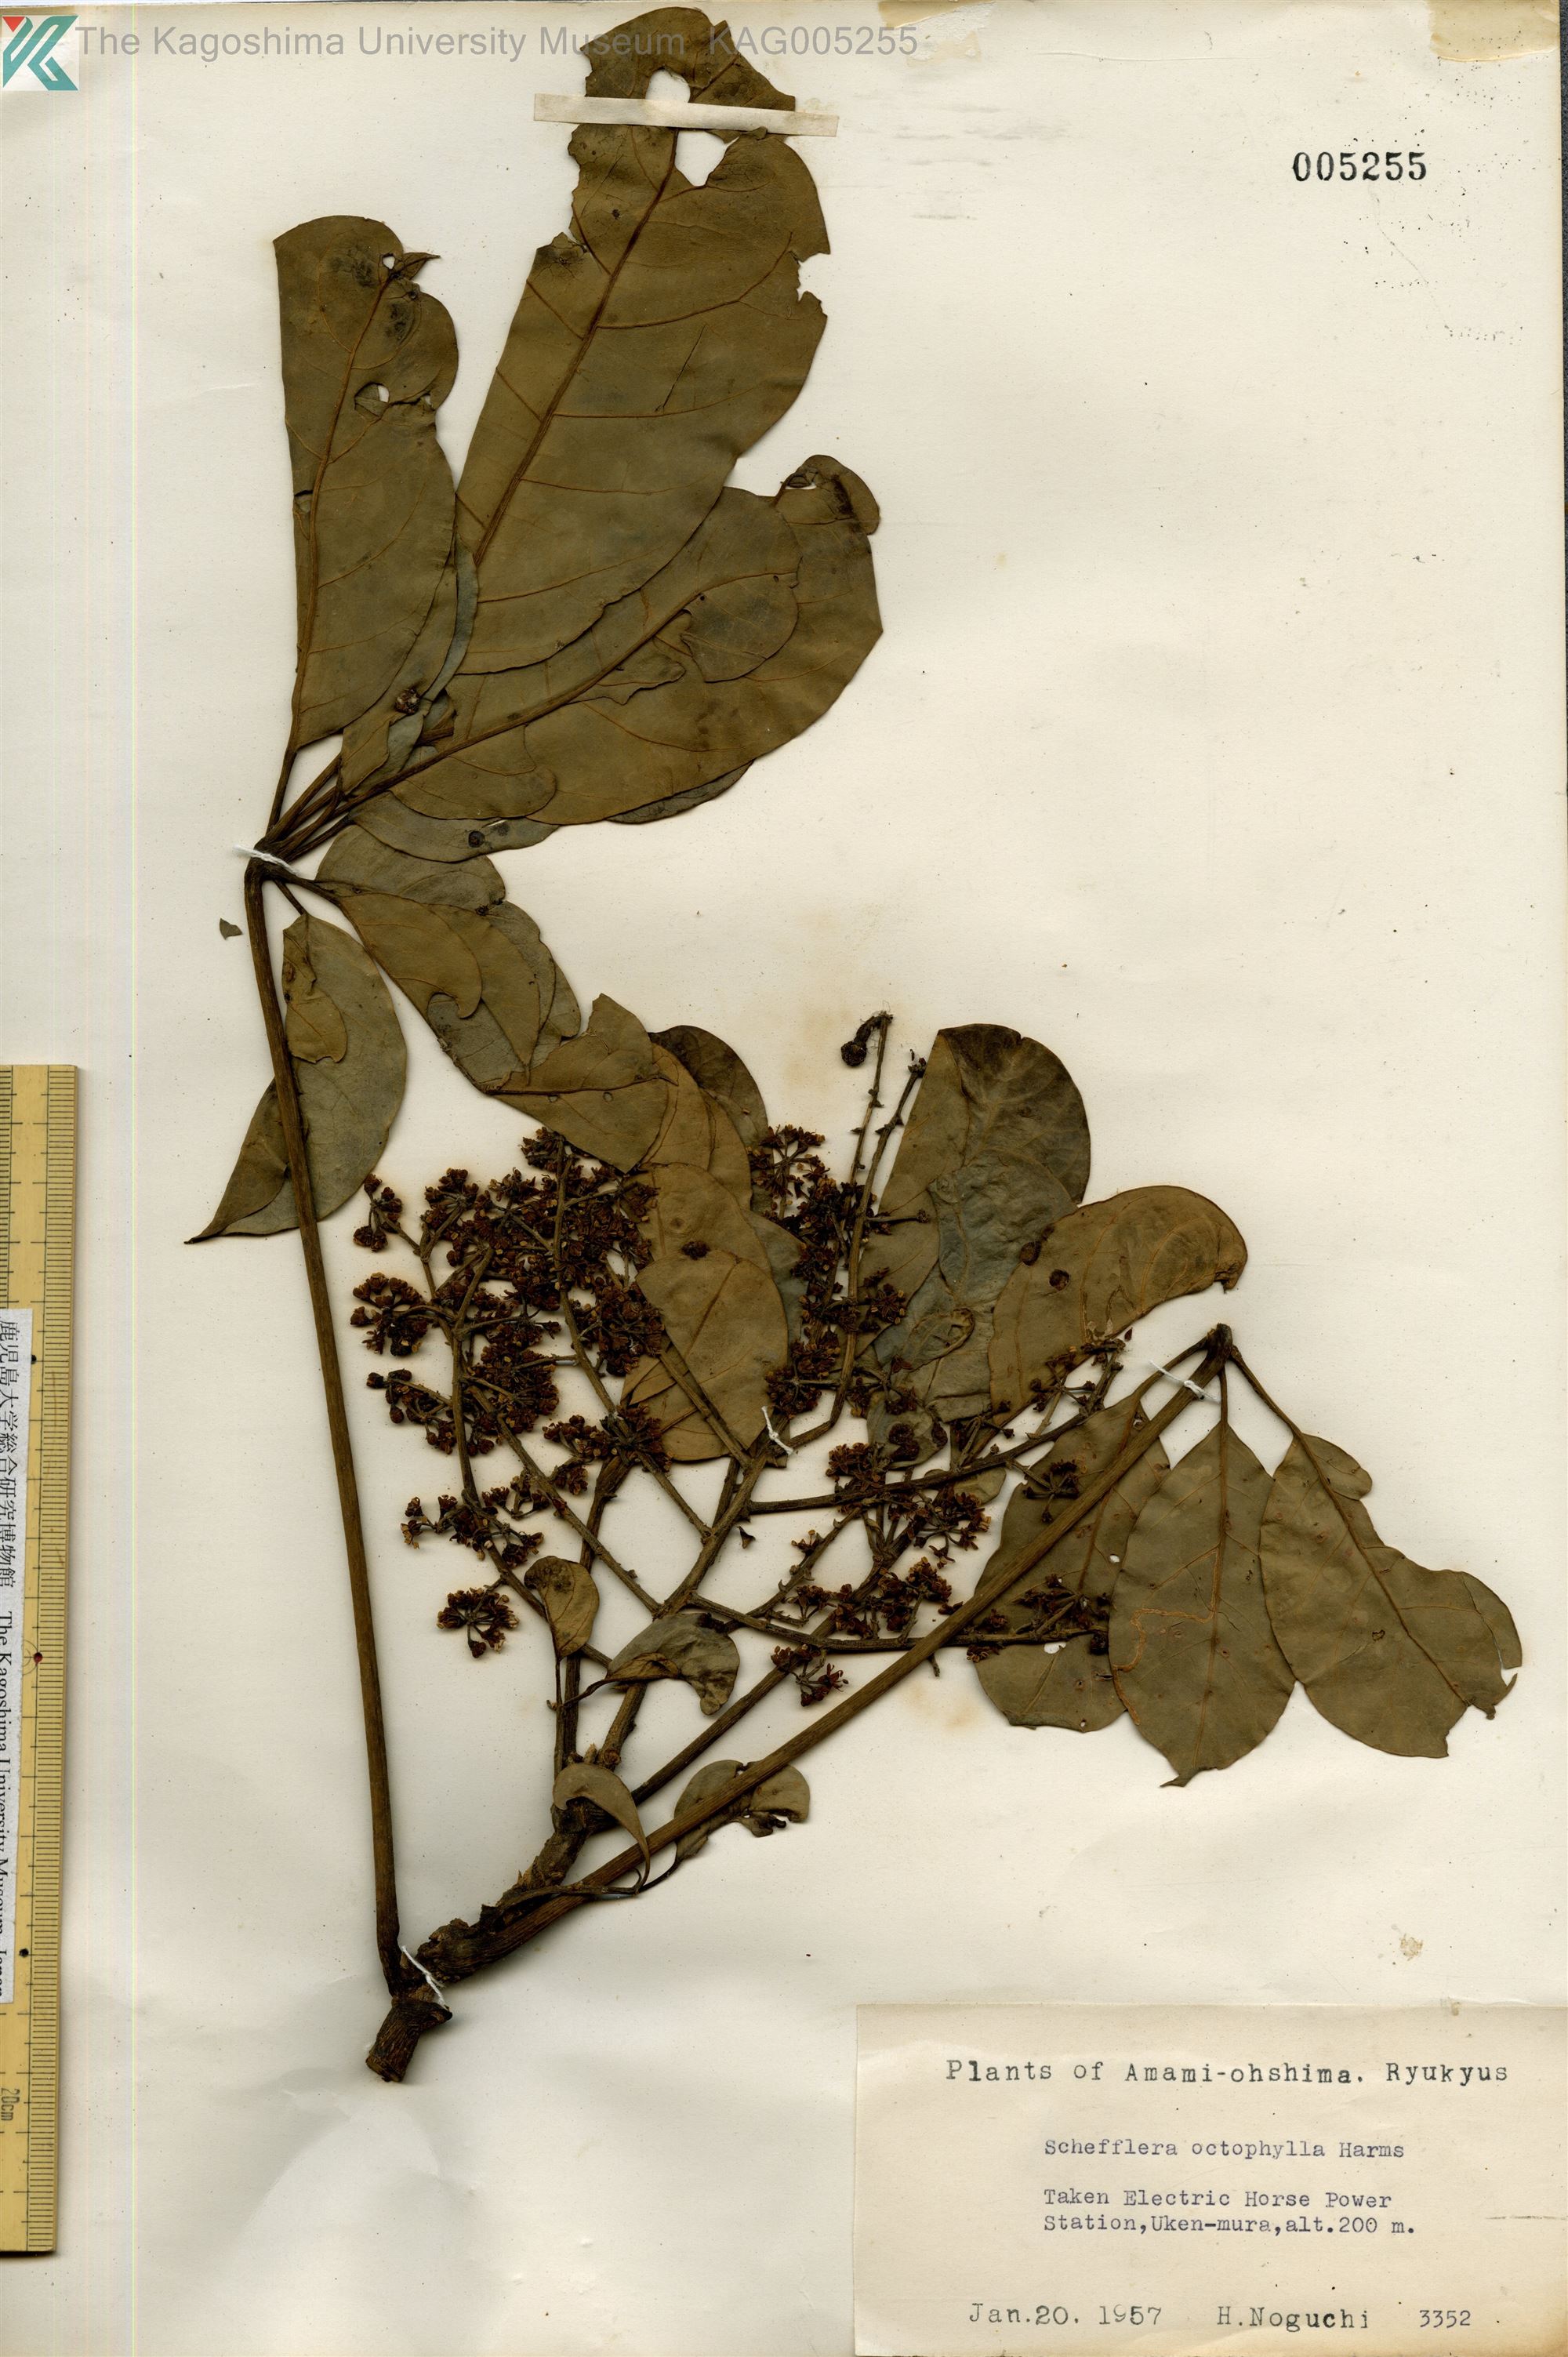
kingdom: Plantae
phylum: Tracheophyta
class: Magnoliopsida
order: Apiales
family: Araliaceae
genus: Heptapleurum
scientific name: Heptapleurum heptaphyllum
